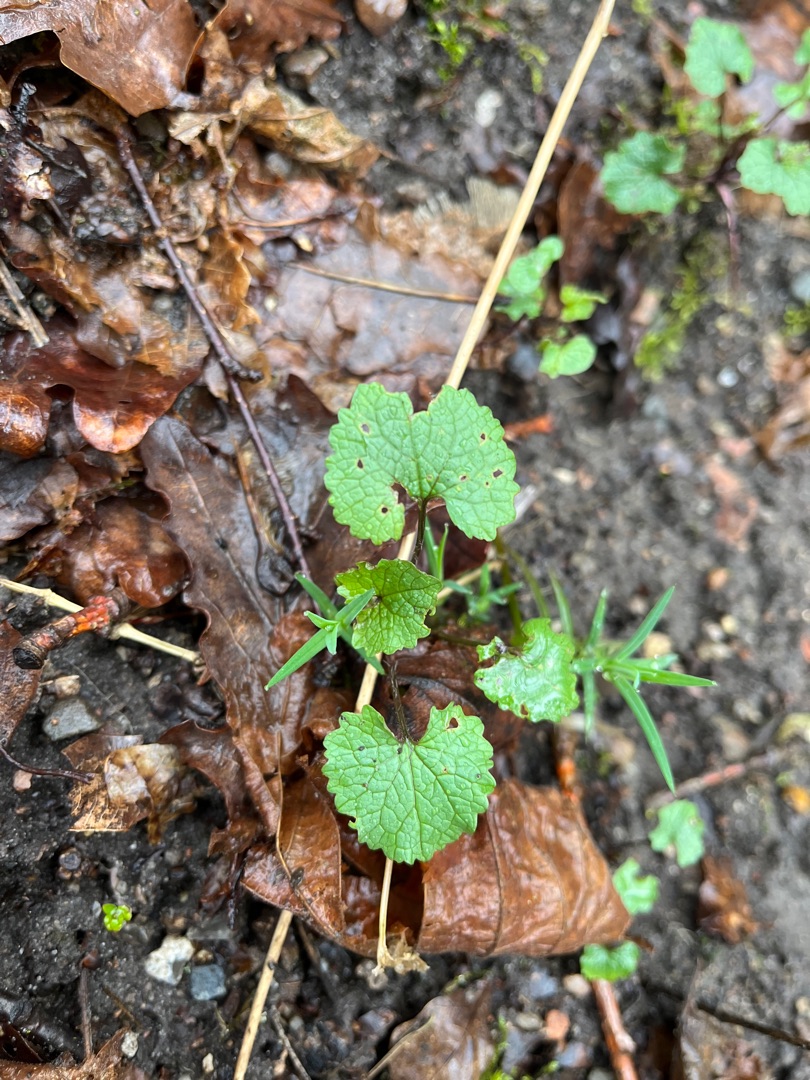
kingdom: Plantae
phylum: Tracheophyta
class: Magnoliopsida
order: Brassicales
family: Brassicaceae
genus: Alliaria
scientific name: Alliaria petiolata
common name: Løgkarse
